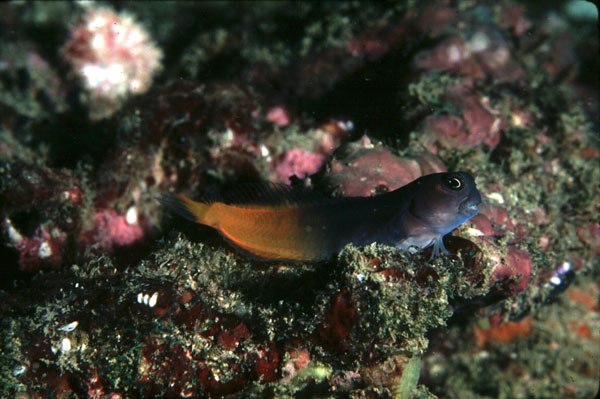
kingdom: Animalia
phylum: Chordata
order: Perciformes
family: Blenniidae
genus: Ecsenius
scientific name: Ecsenius bicolor
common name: Bicolor blenny
